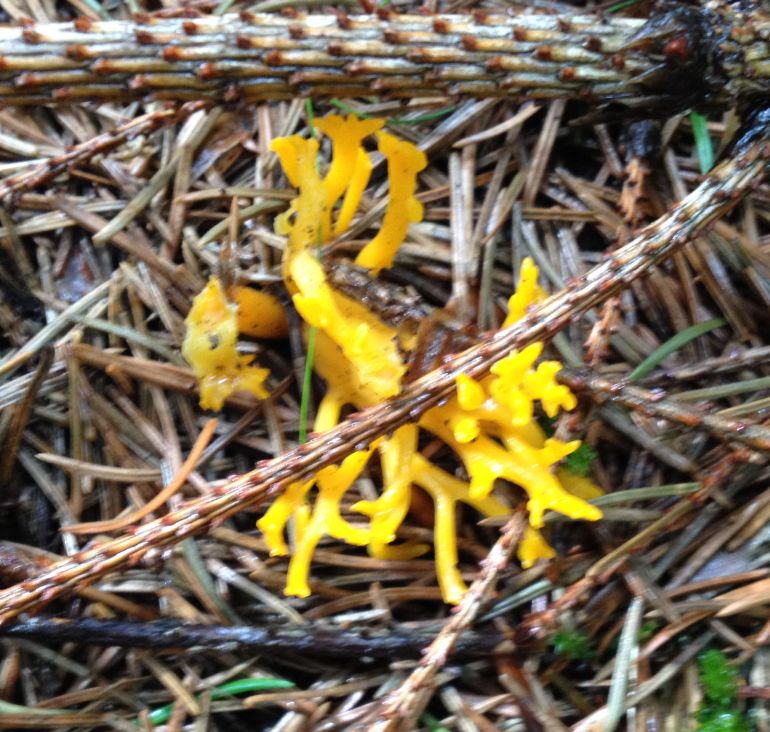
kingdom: Fungi
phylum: Basidiomycota
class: Dacrymycetes
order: Dacrymycetales
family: Dacrymycetaceae
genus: Calocera
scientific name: Calocera viscosa
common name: almindelig guldgaffel
